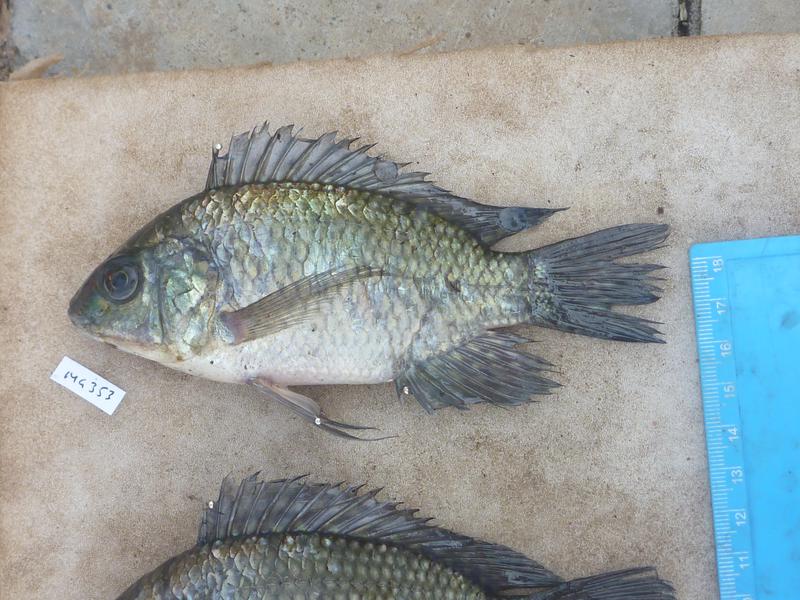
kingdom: Animalia
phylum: Chordata
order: Perciformes
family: Cichlidae
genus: Oreochromis
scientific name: Oreochromis leucostictus
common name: Blue spotted tilapia
